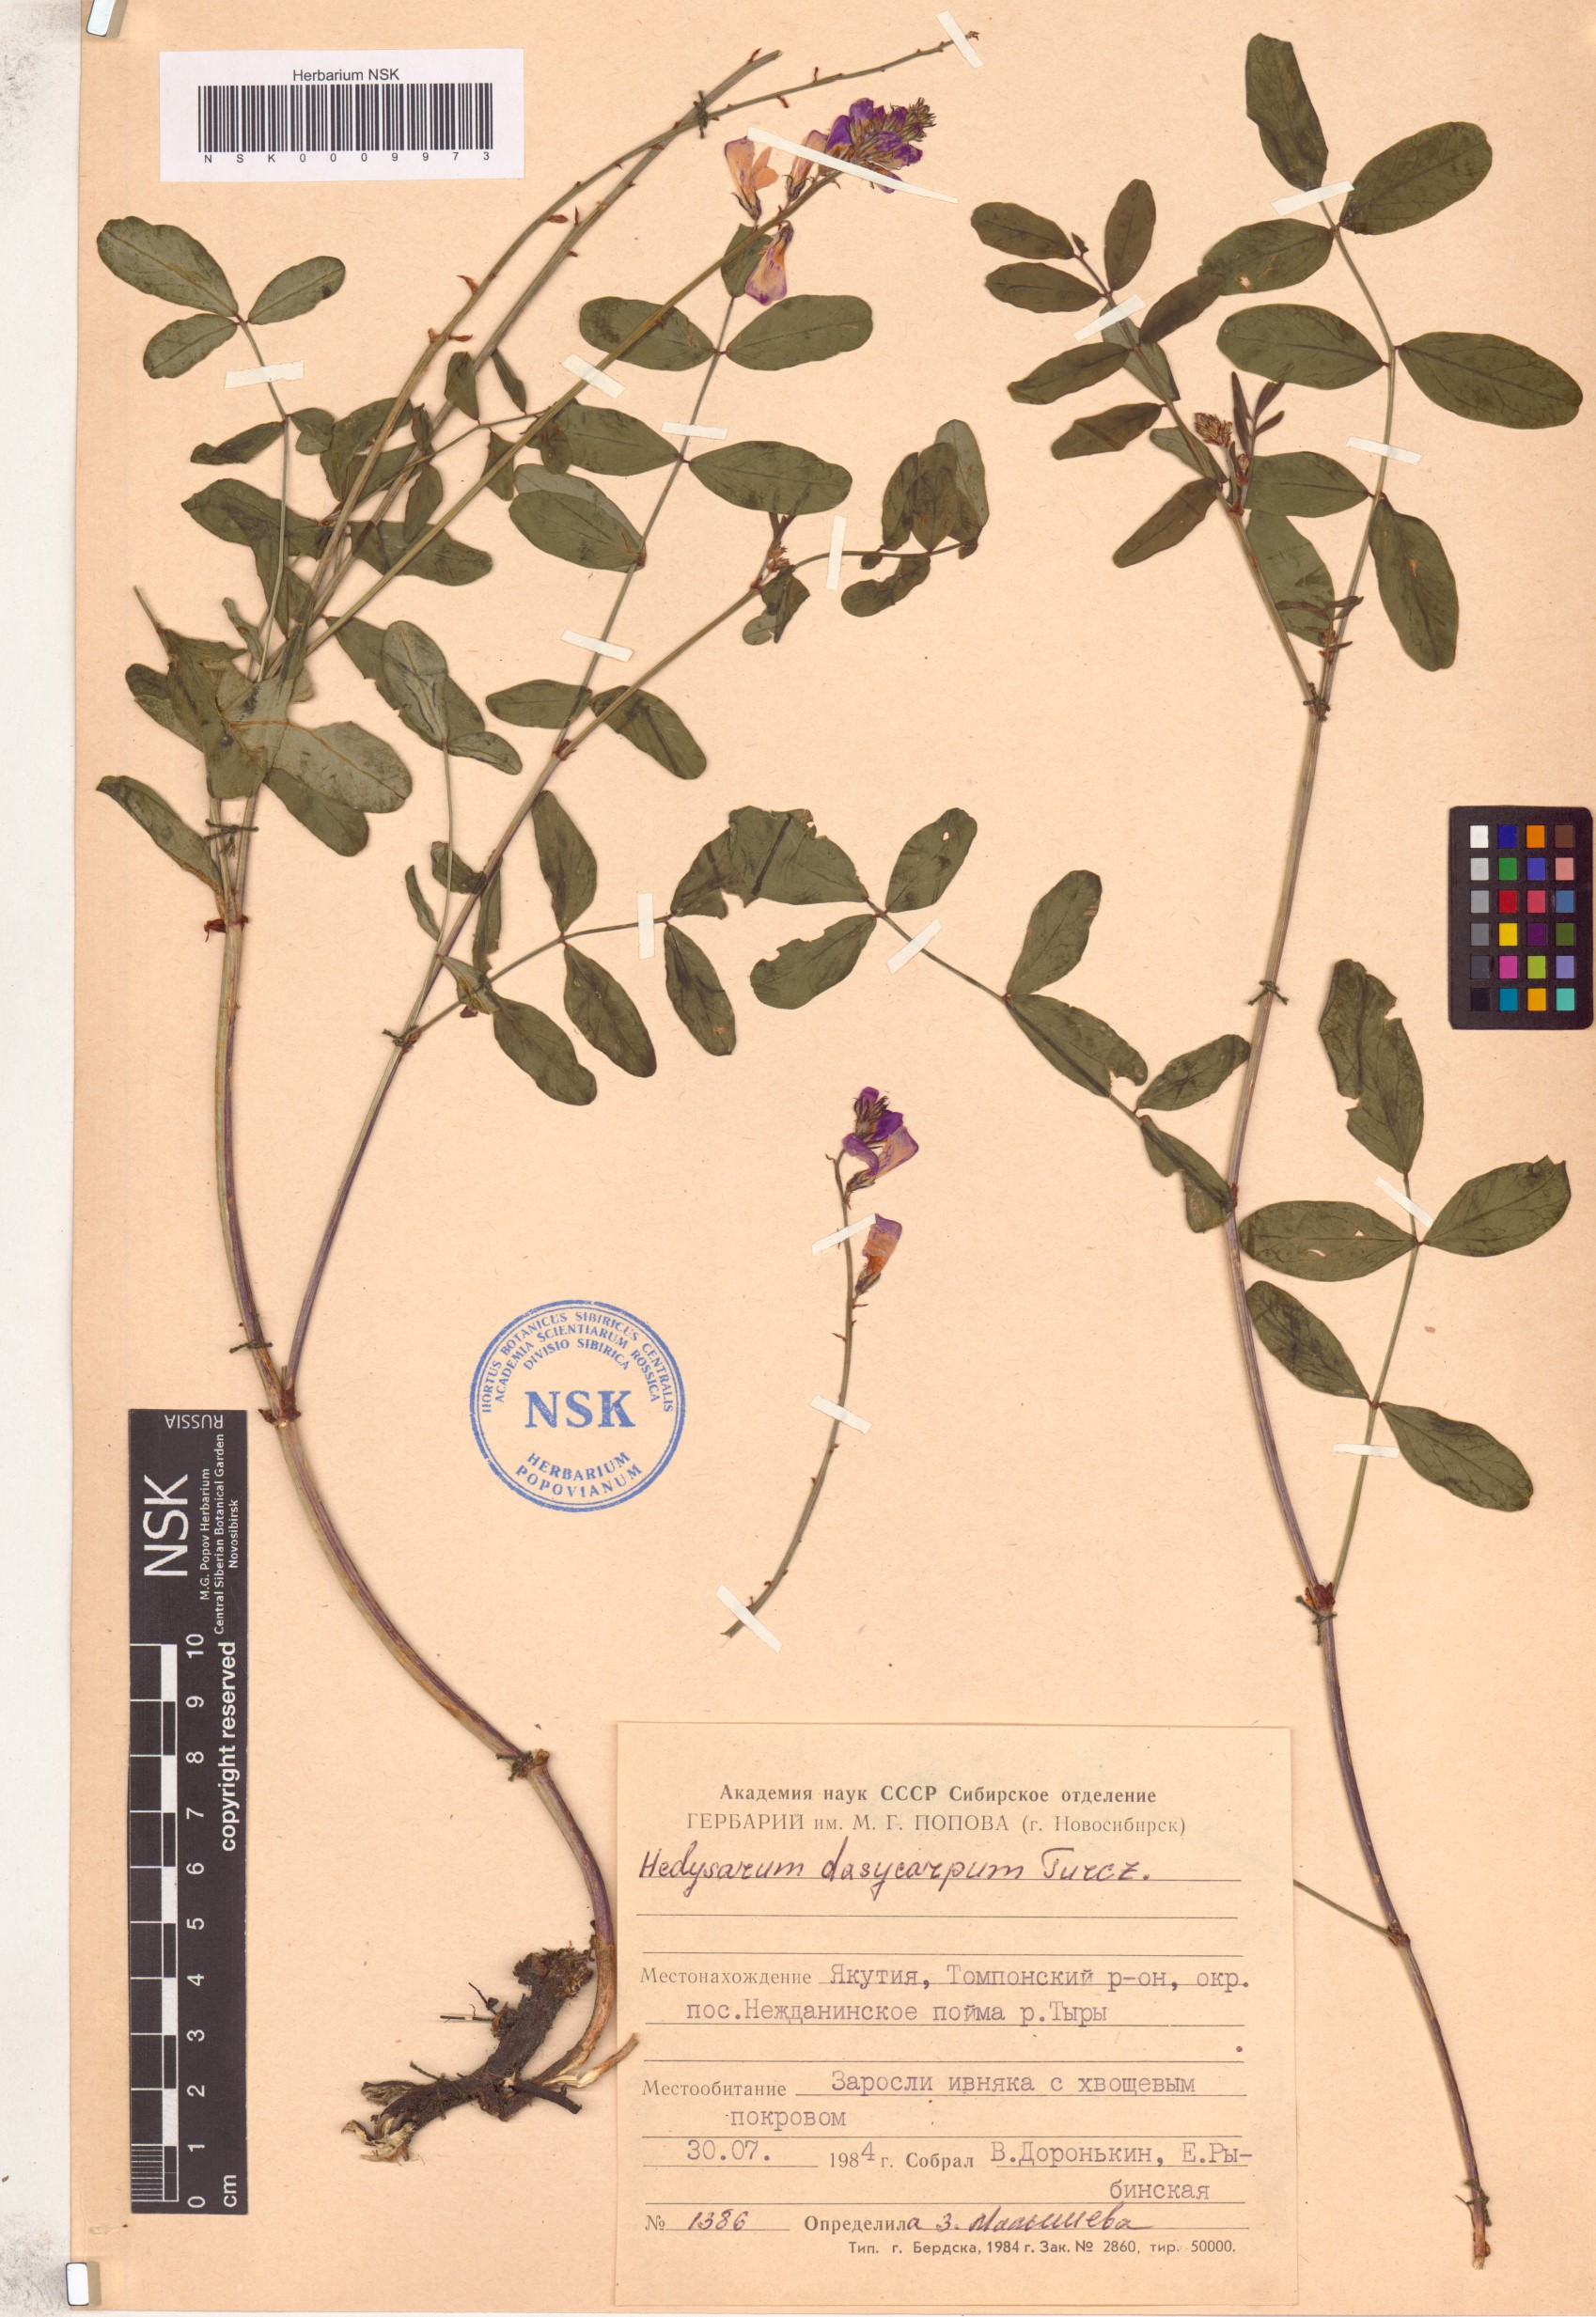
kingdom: Plantae
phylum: Tracheophyta
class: Magnoliopsida
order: Fabales
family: Fabaceae
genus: Hedysarum
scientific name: Hedysarum dasycarpum
